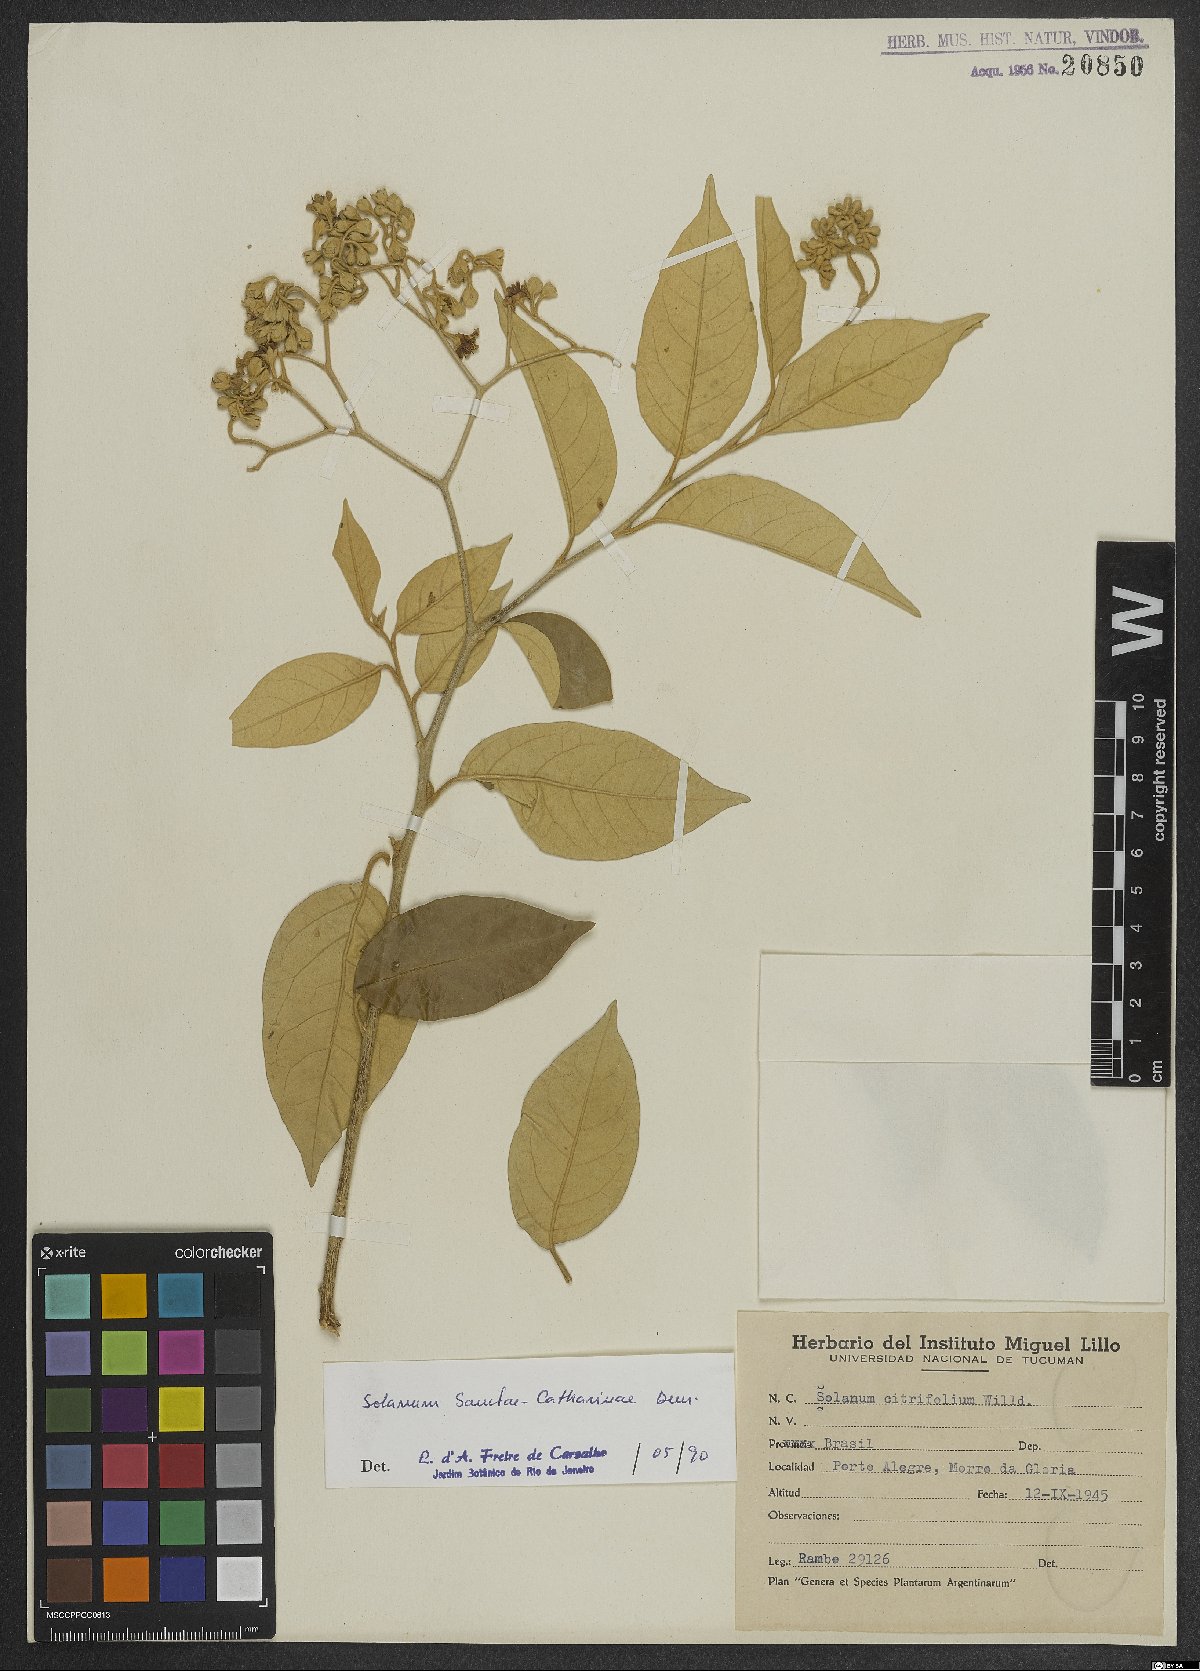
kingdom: Plantae
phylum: Tracheophyta
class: Magnoliopsida
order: Solanales
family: Solanaceae
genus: Solanum
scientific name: Solanum sanctae-catharinae
